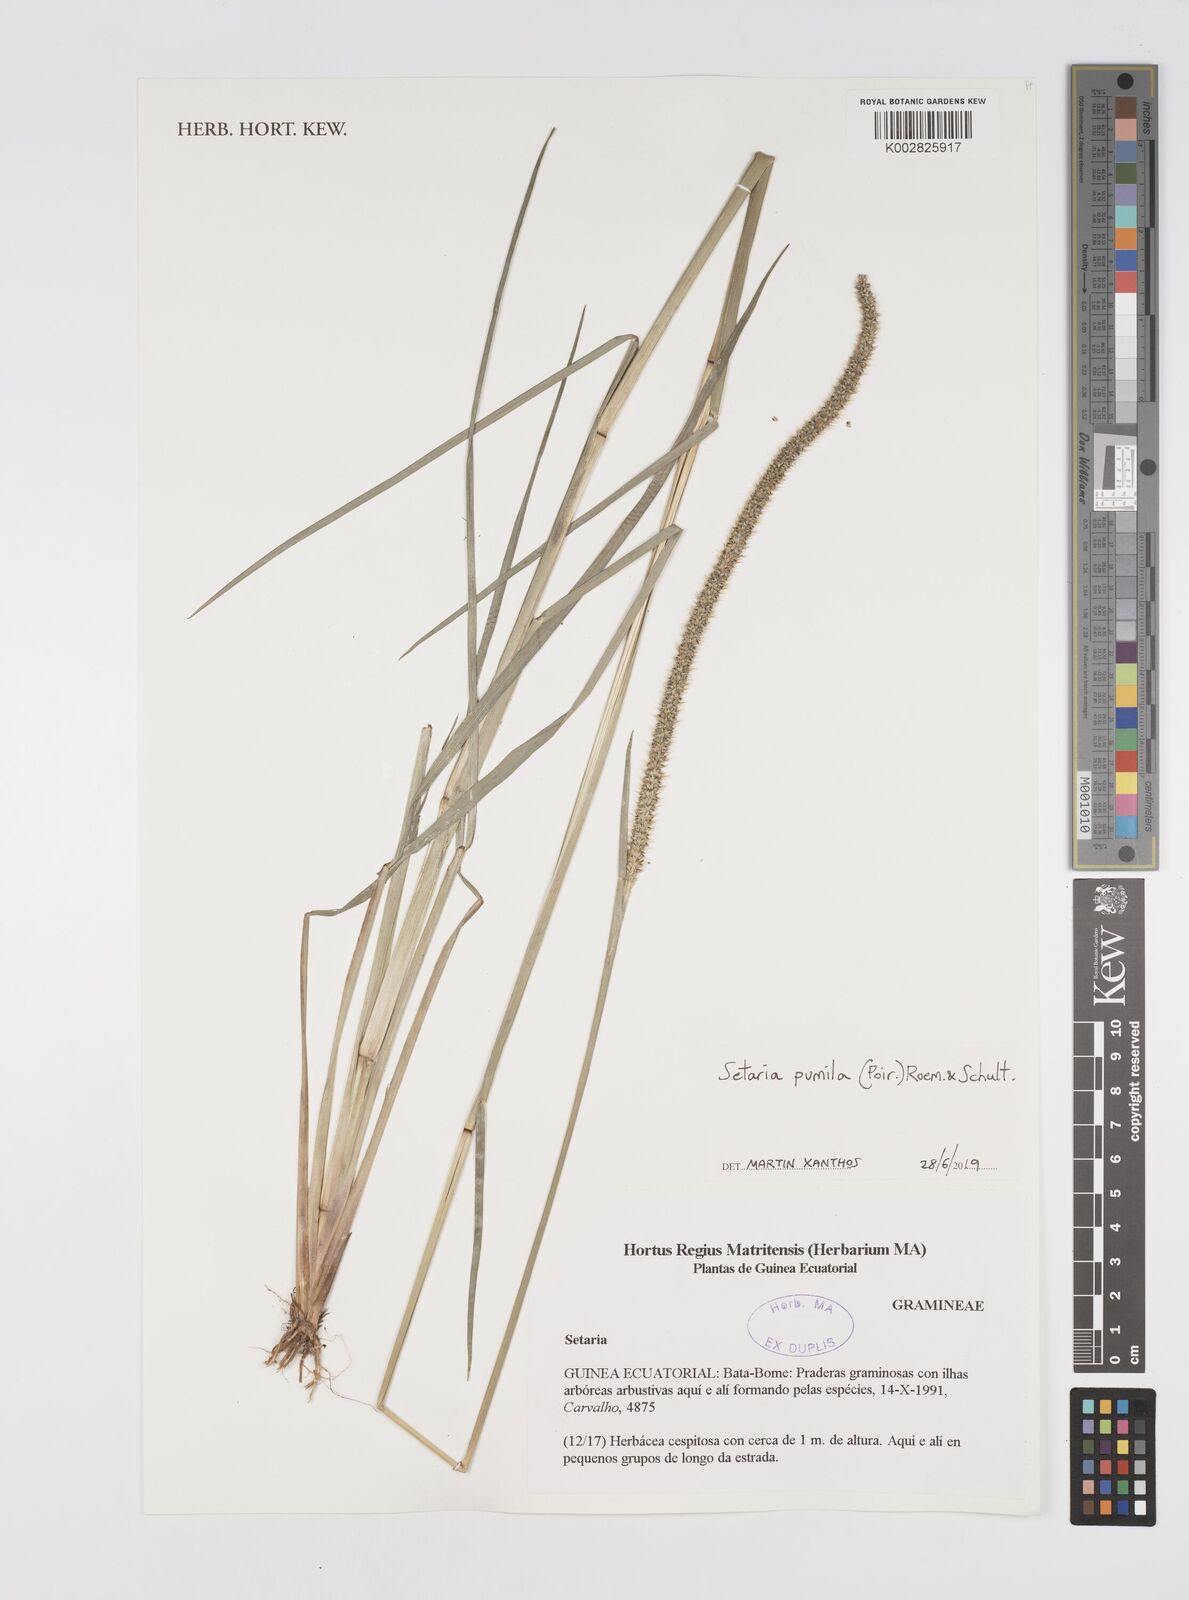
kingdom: Plantae
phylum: Tracheophyta
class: Liliopsida
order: Poales
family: Poaceae
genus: Setaria
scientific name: Setaria pumila
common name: Yellow bristle-grass
